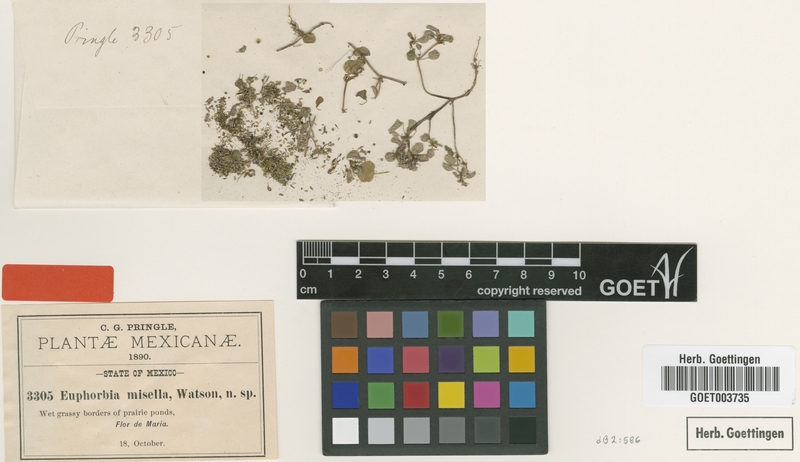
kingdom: Plantae
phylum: Tracheophyta
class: Magnoliopsida
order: Malpighiales
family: Euphorbiaceae
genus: Euphorbia
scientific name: Euphorbia misella
